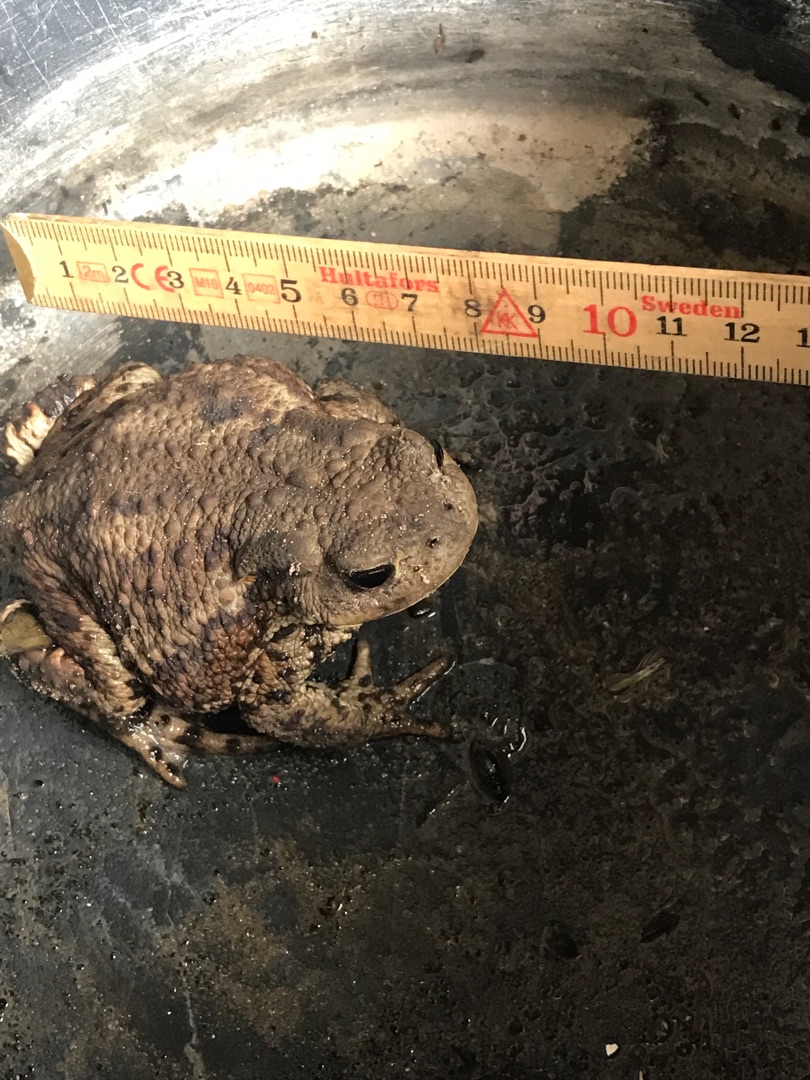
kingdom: Animalia
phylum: Chordata
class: Amphibia
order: Anura
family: Bufonidae
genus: Bufo
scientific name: Bufo bufo
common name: Skrubtudse
